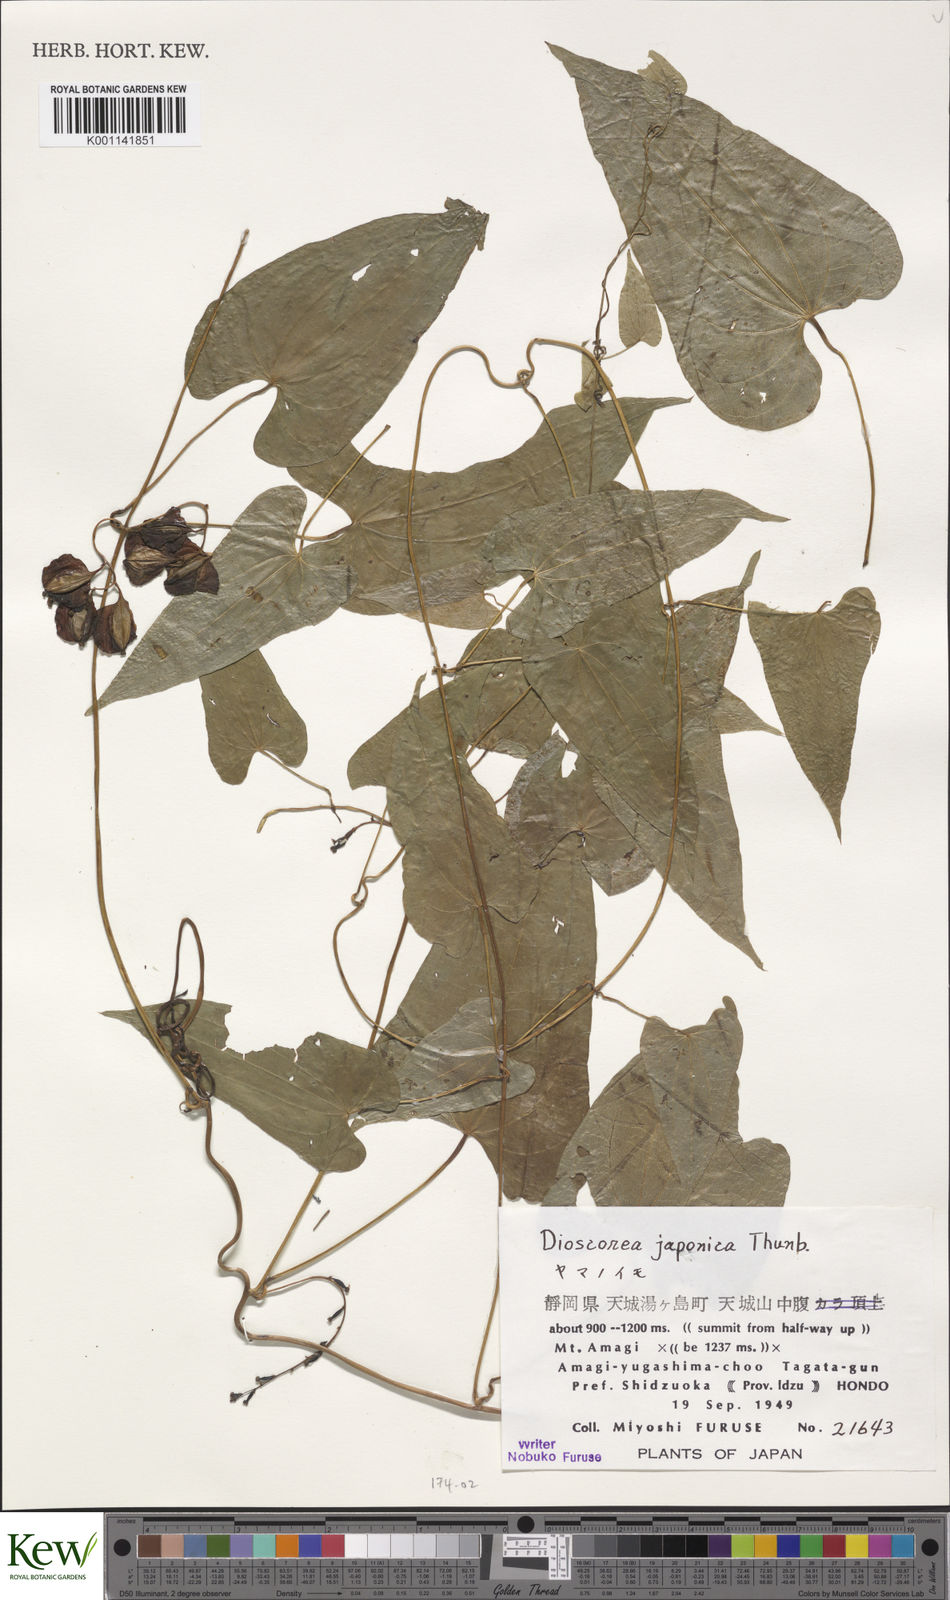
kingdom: Plantae
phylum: Tracheophyta
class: Liliopsida
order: Dioscoreales
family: Dioscoreaceae
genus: Dioscorea
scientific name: Dioscorea japonica
